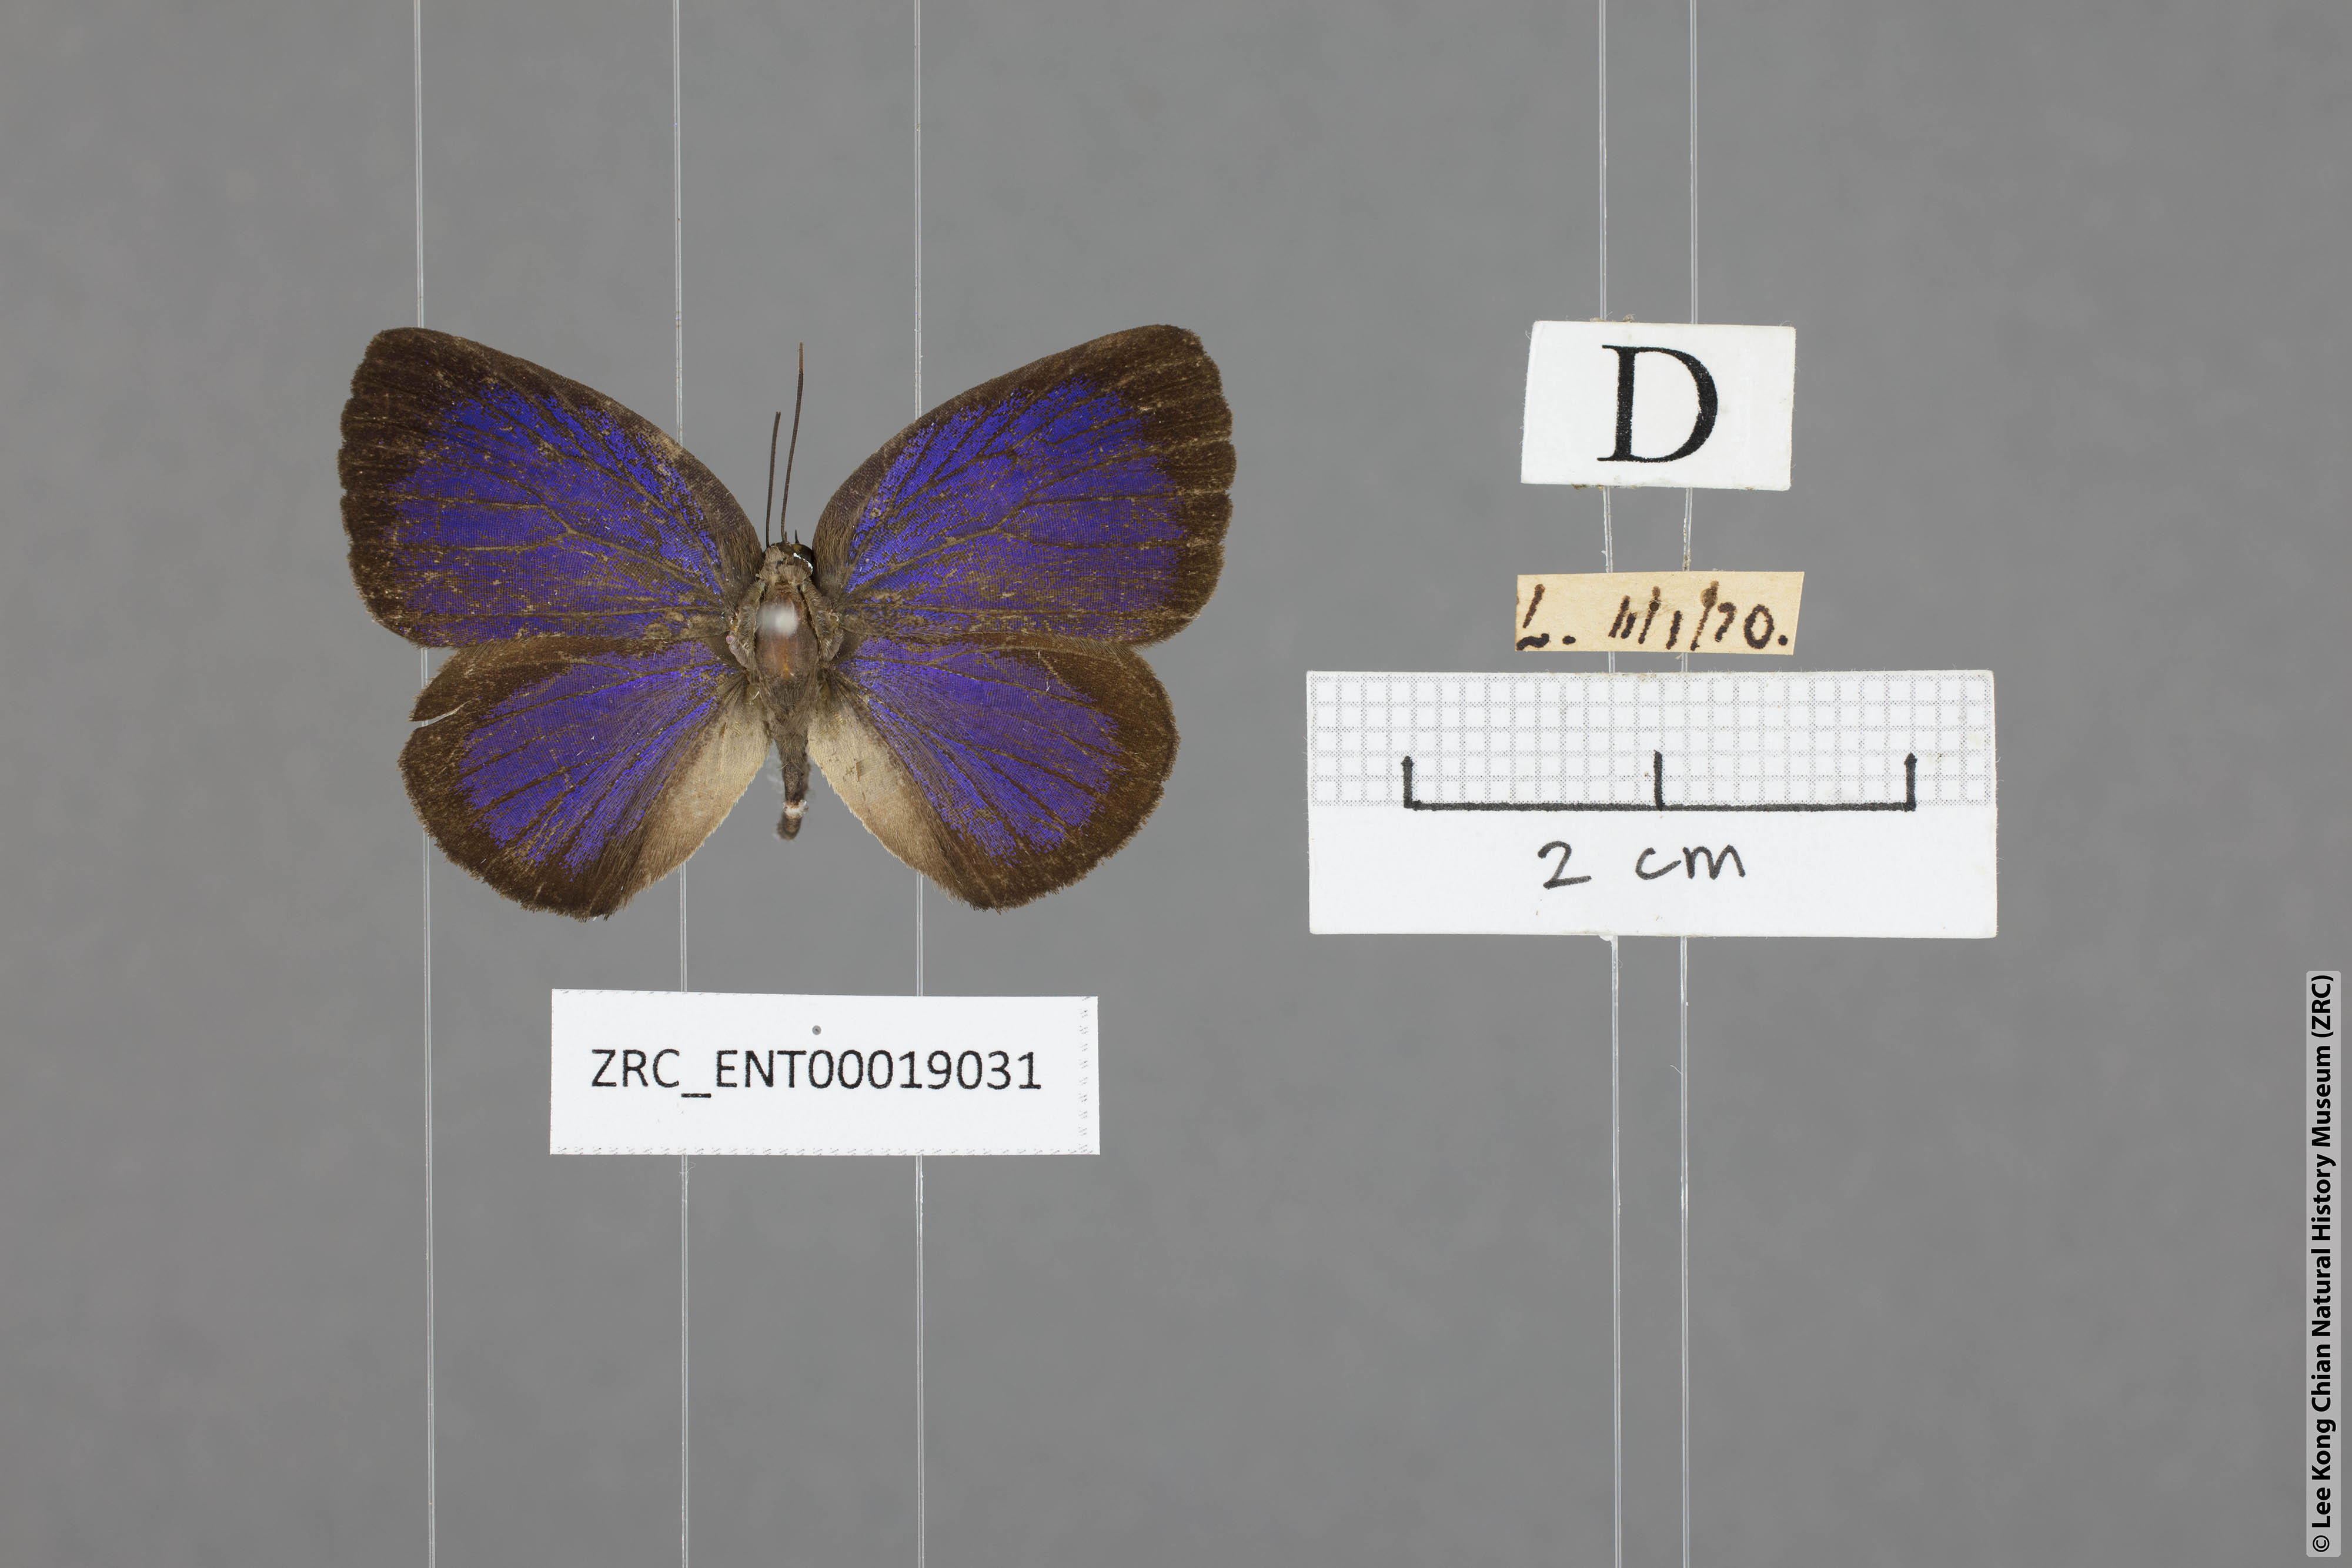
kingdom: Animalia
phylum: Arthropoda
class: Insecta
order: Lepidoptera
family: Lycaenidae
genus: Arhopala
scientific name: Arhopala agesilaus
